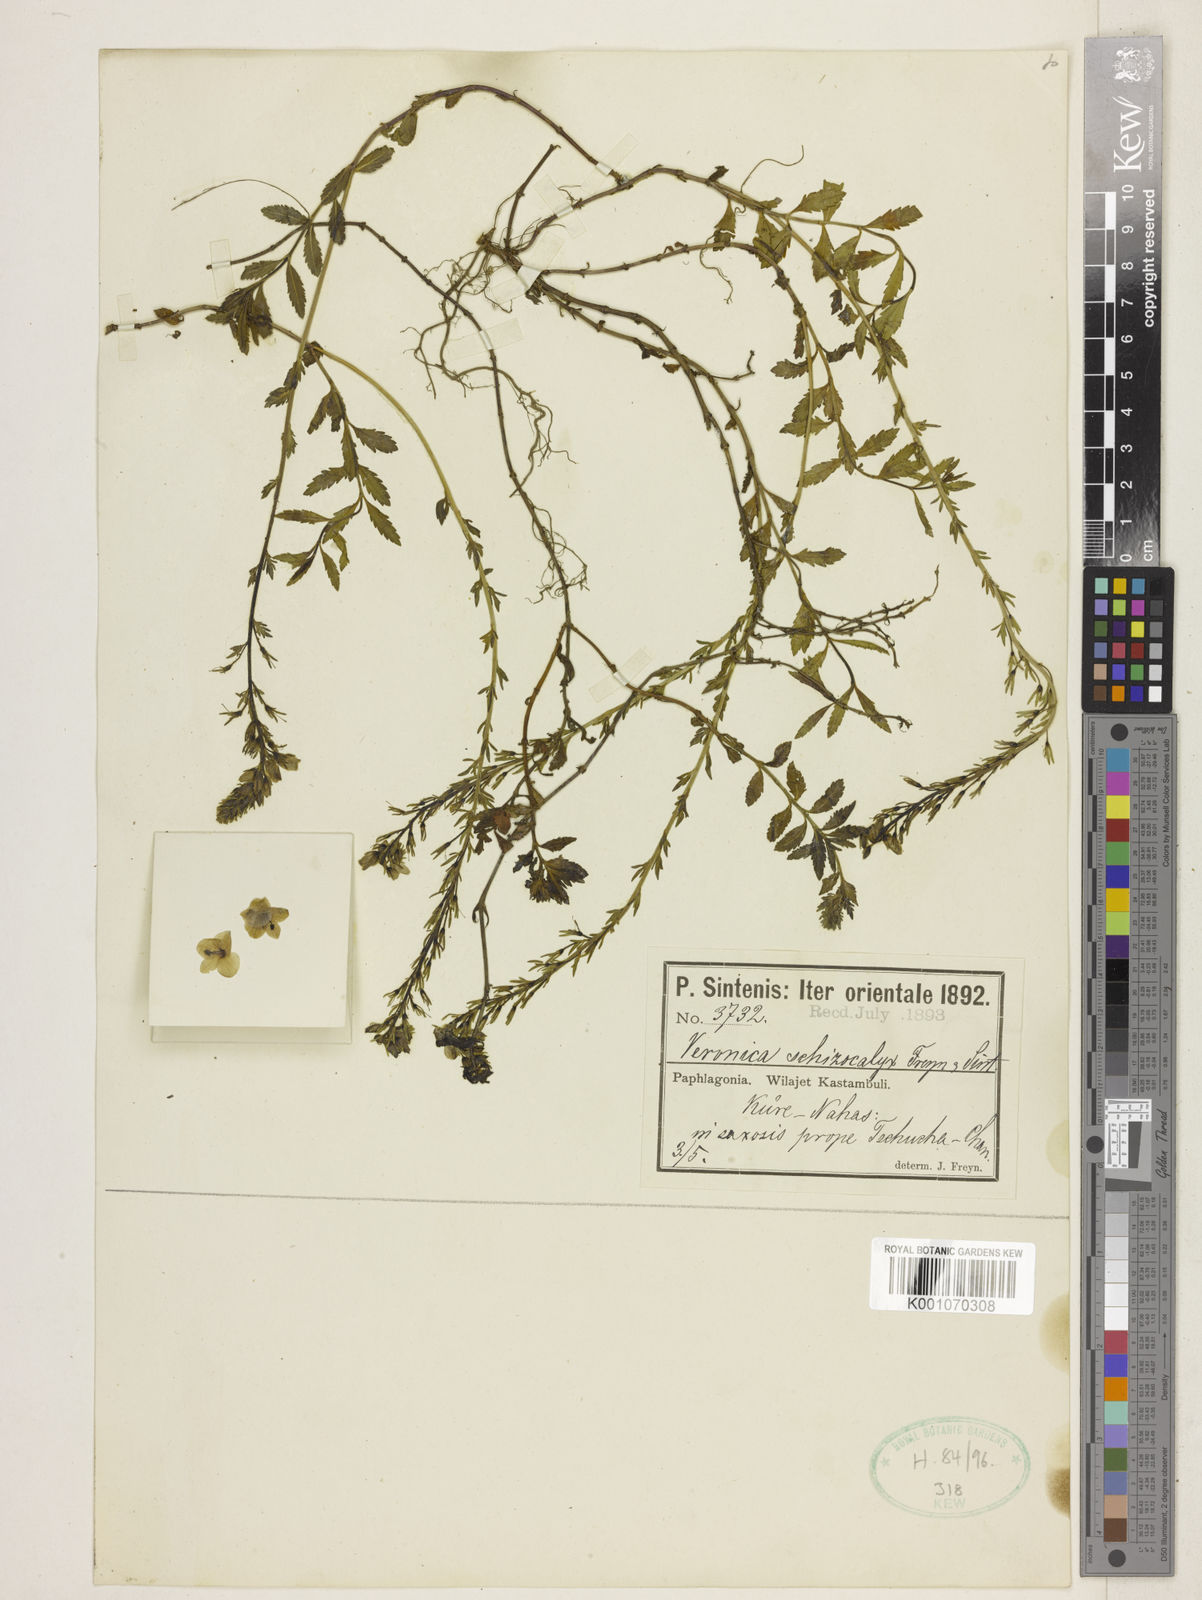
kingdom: Plantae
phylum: Tracheophyta
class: Magnoliopsida
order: Lamiales
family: Plantaginaceae
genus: Veronica
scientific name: Veronica pectinata
